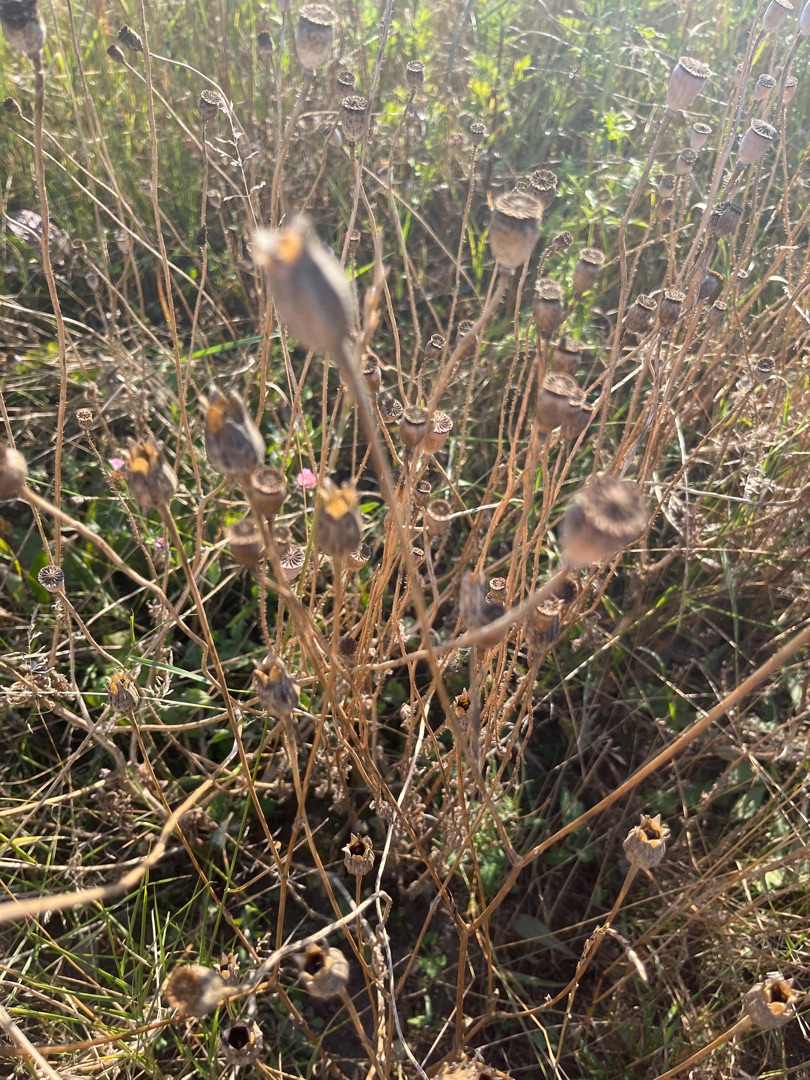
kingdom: Plantae
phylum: Tracheophyta
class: Magnoliopsida
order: Ranunculales
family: Papaveraceae
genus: Papaver
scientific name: Papaver rhoeas
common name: Korn-valmue
